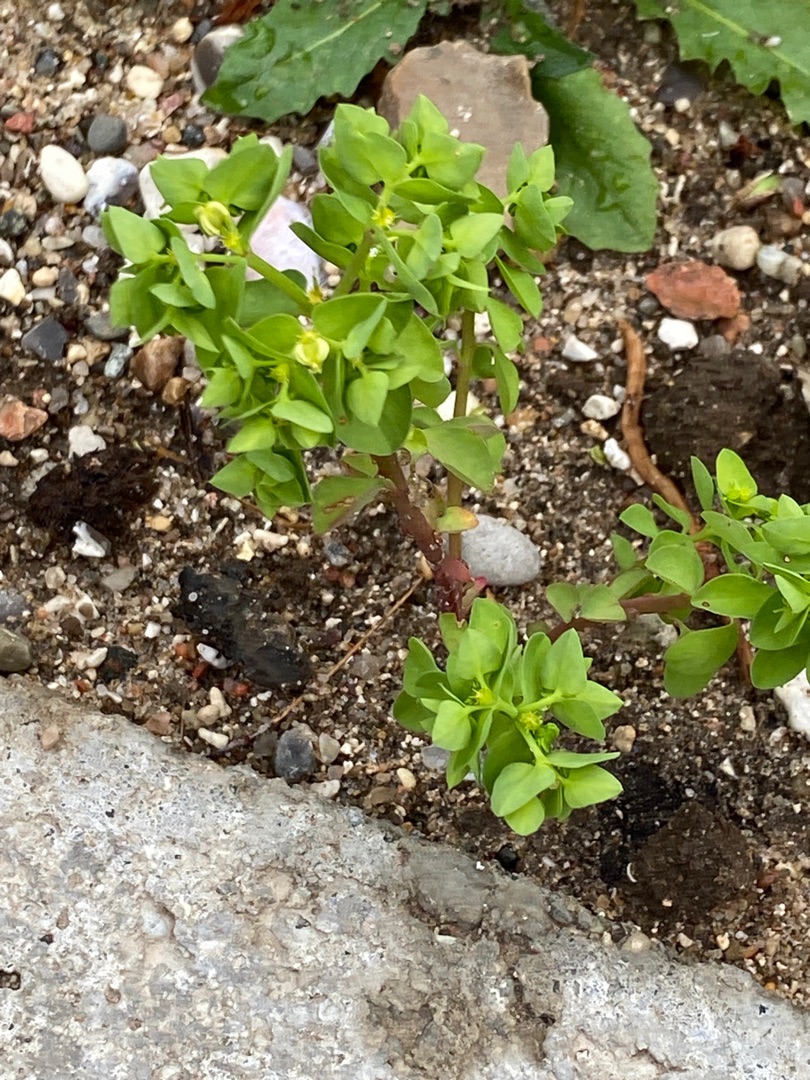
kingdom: Plantae
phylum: Tracheophyta
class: Magnoliopsida
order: Malpighiales
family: Euphorbiaceae
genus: Euphorbia
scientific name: Euphorbia peplus
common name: Gaffel-vortemælk
